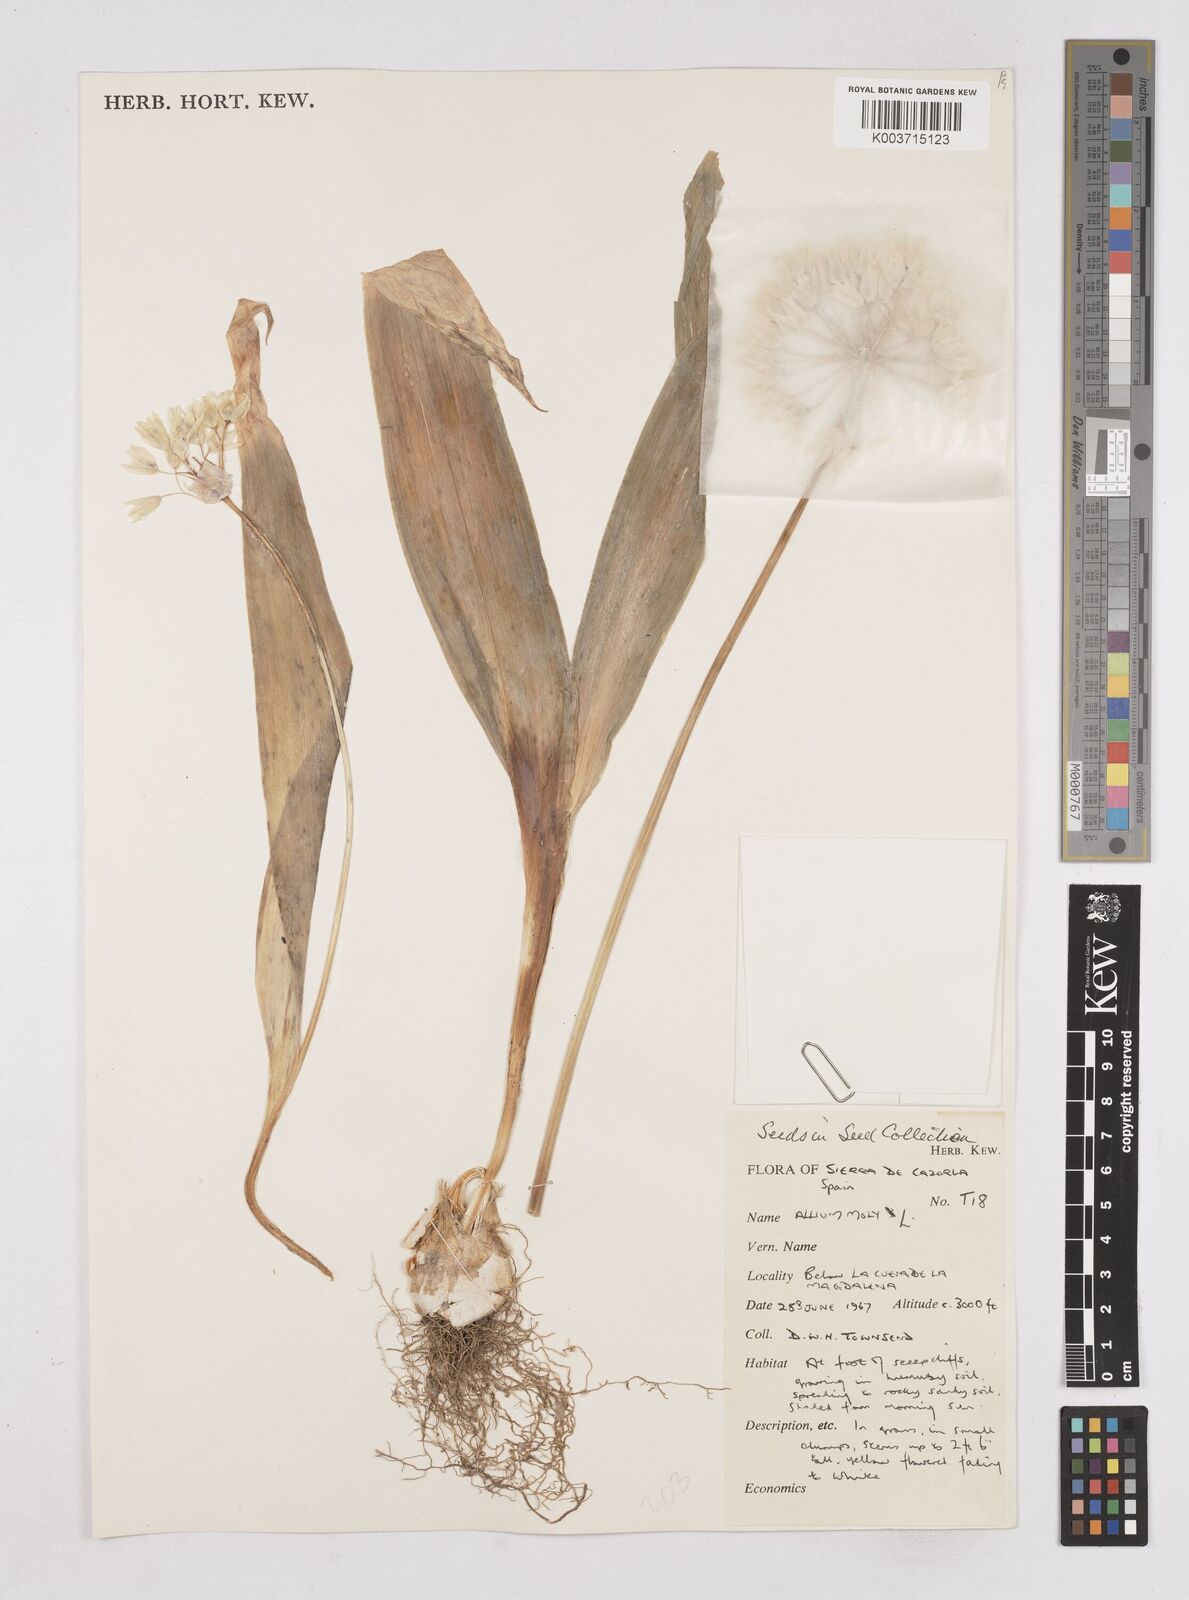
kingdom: Plantae
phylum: Tracheophyta
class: Liliopsida
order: Asparagales
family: Amaryllidaceae
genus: Allium
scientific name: Allium moly
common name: Yellow garlic
